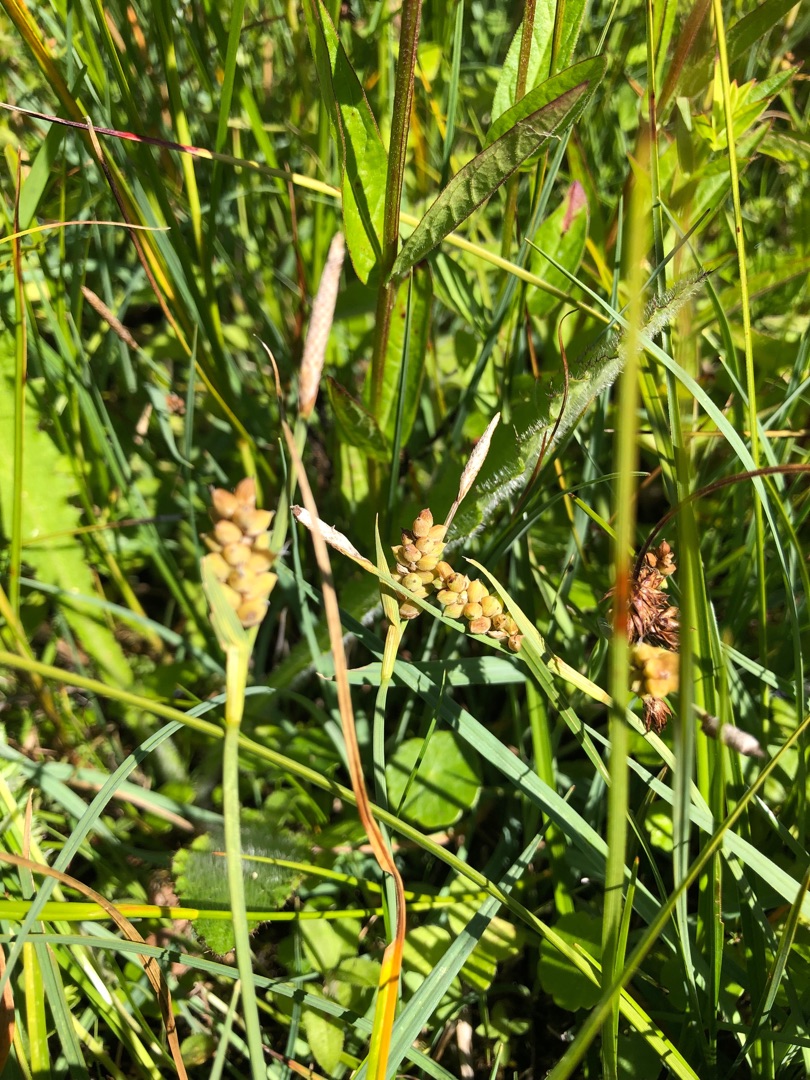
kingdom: Plantae
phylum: Tracheophyta
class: Liliopsida
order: Poales
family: Cyperaceae
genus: Carex
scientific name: Carex panicea
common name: Hirse-star
